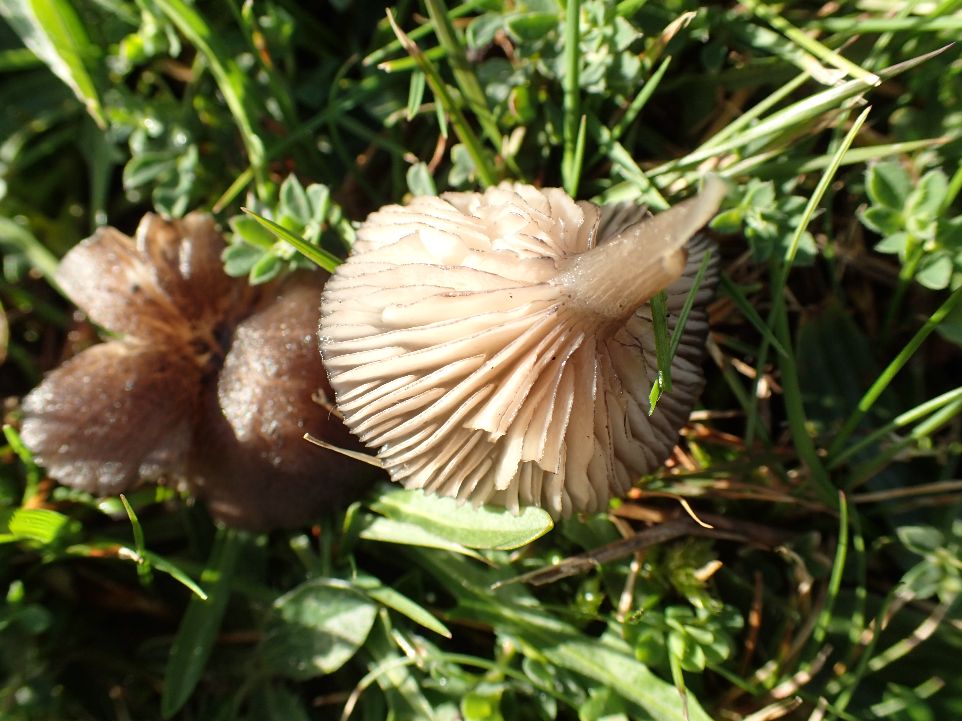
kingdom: Fungi
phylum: Basidiomycota
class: Agaricomycetes
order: Agaricales
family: Entolomataceae
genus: Entoloma
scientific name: Entoloma
